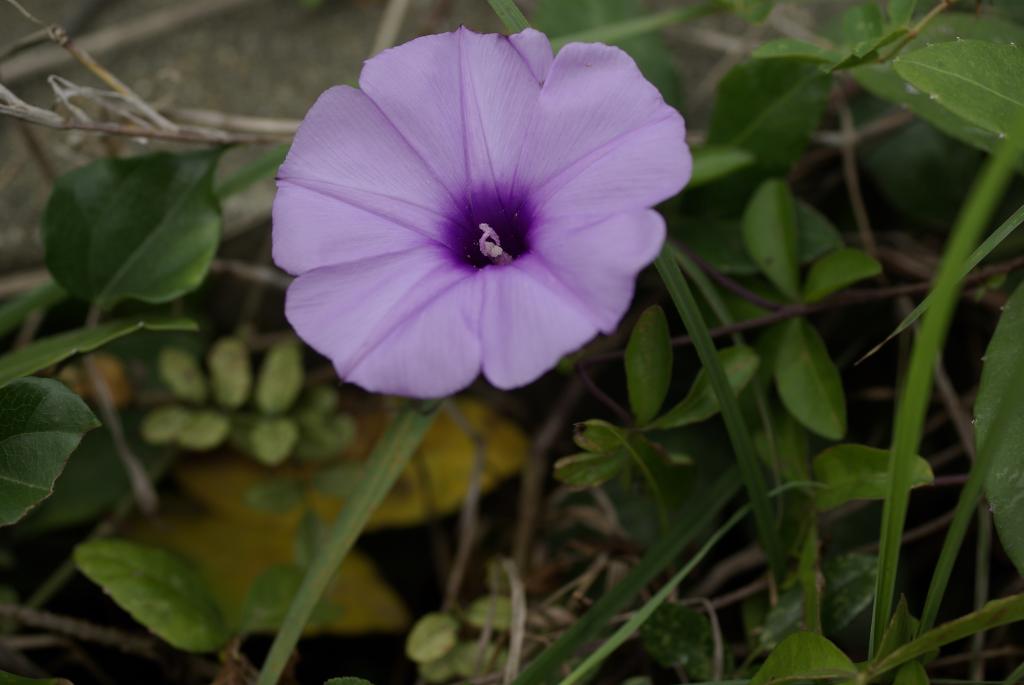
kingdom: Plantae
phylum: Tracheophyta
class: Magnoliopsida
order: Solanales
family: Convolvulaceae
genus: Ipomoea
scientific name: Ipomoea cairica
